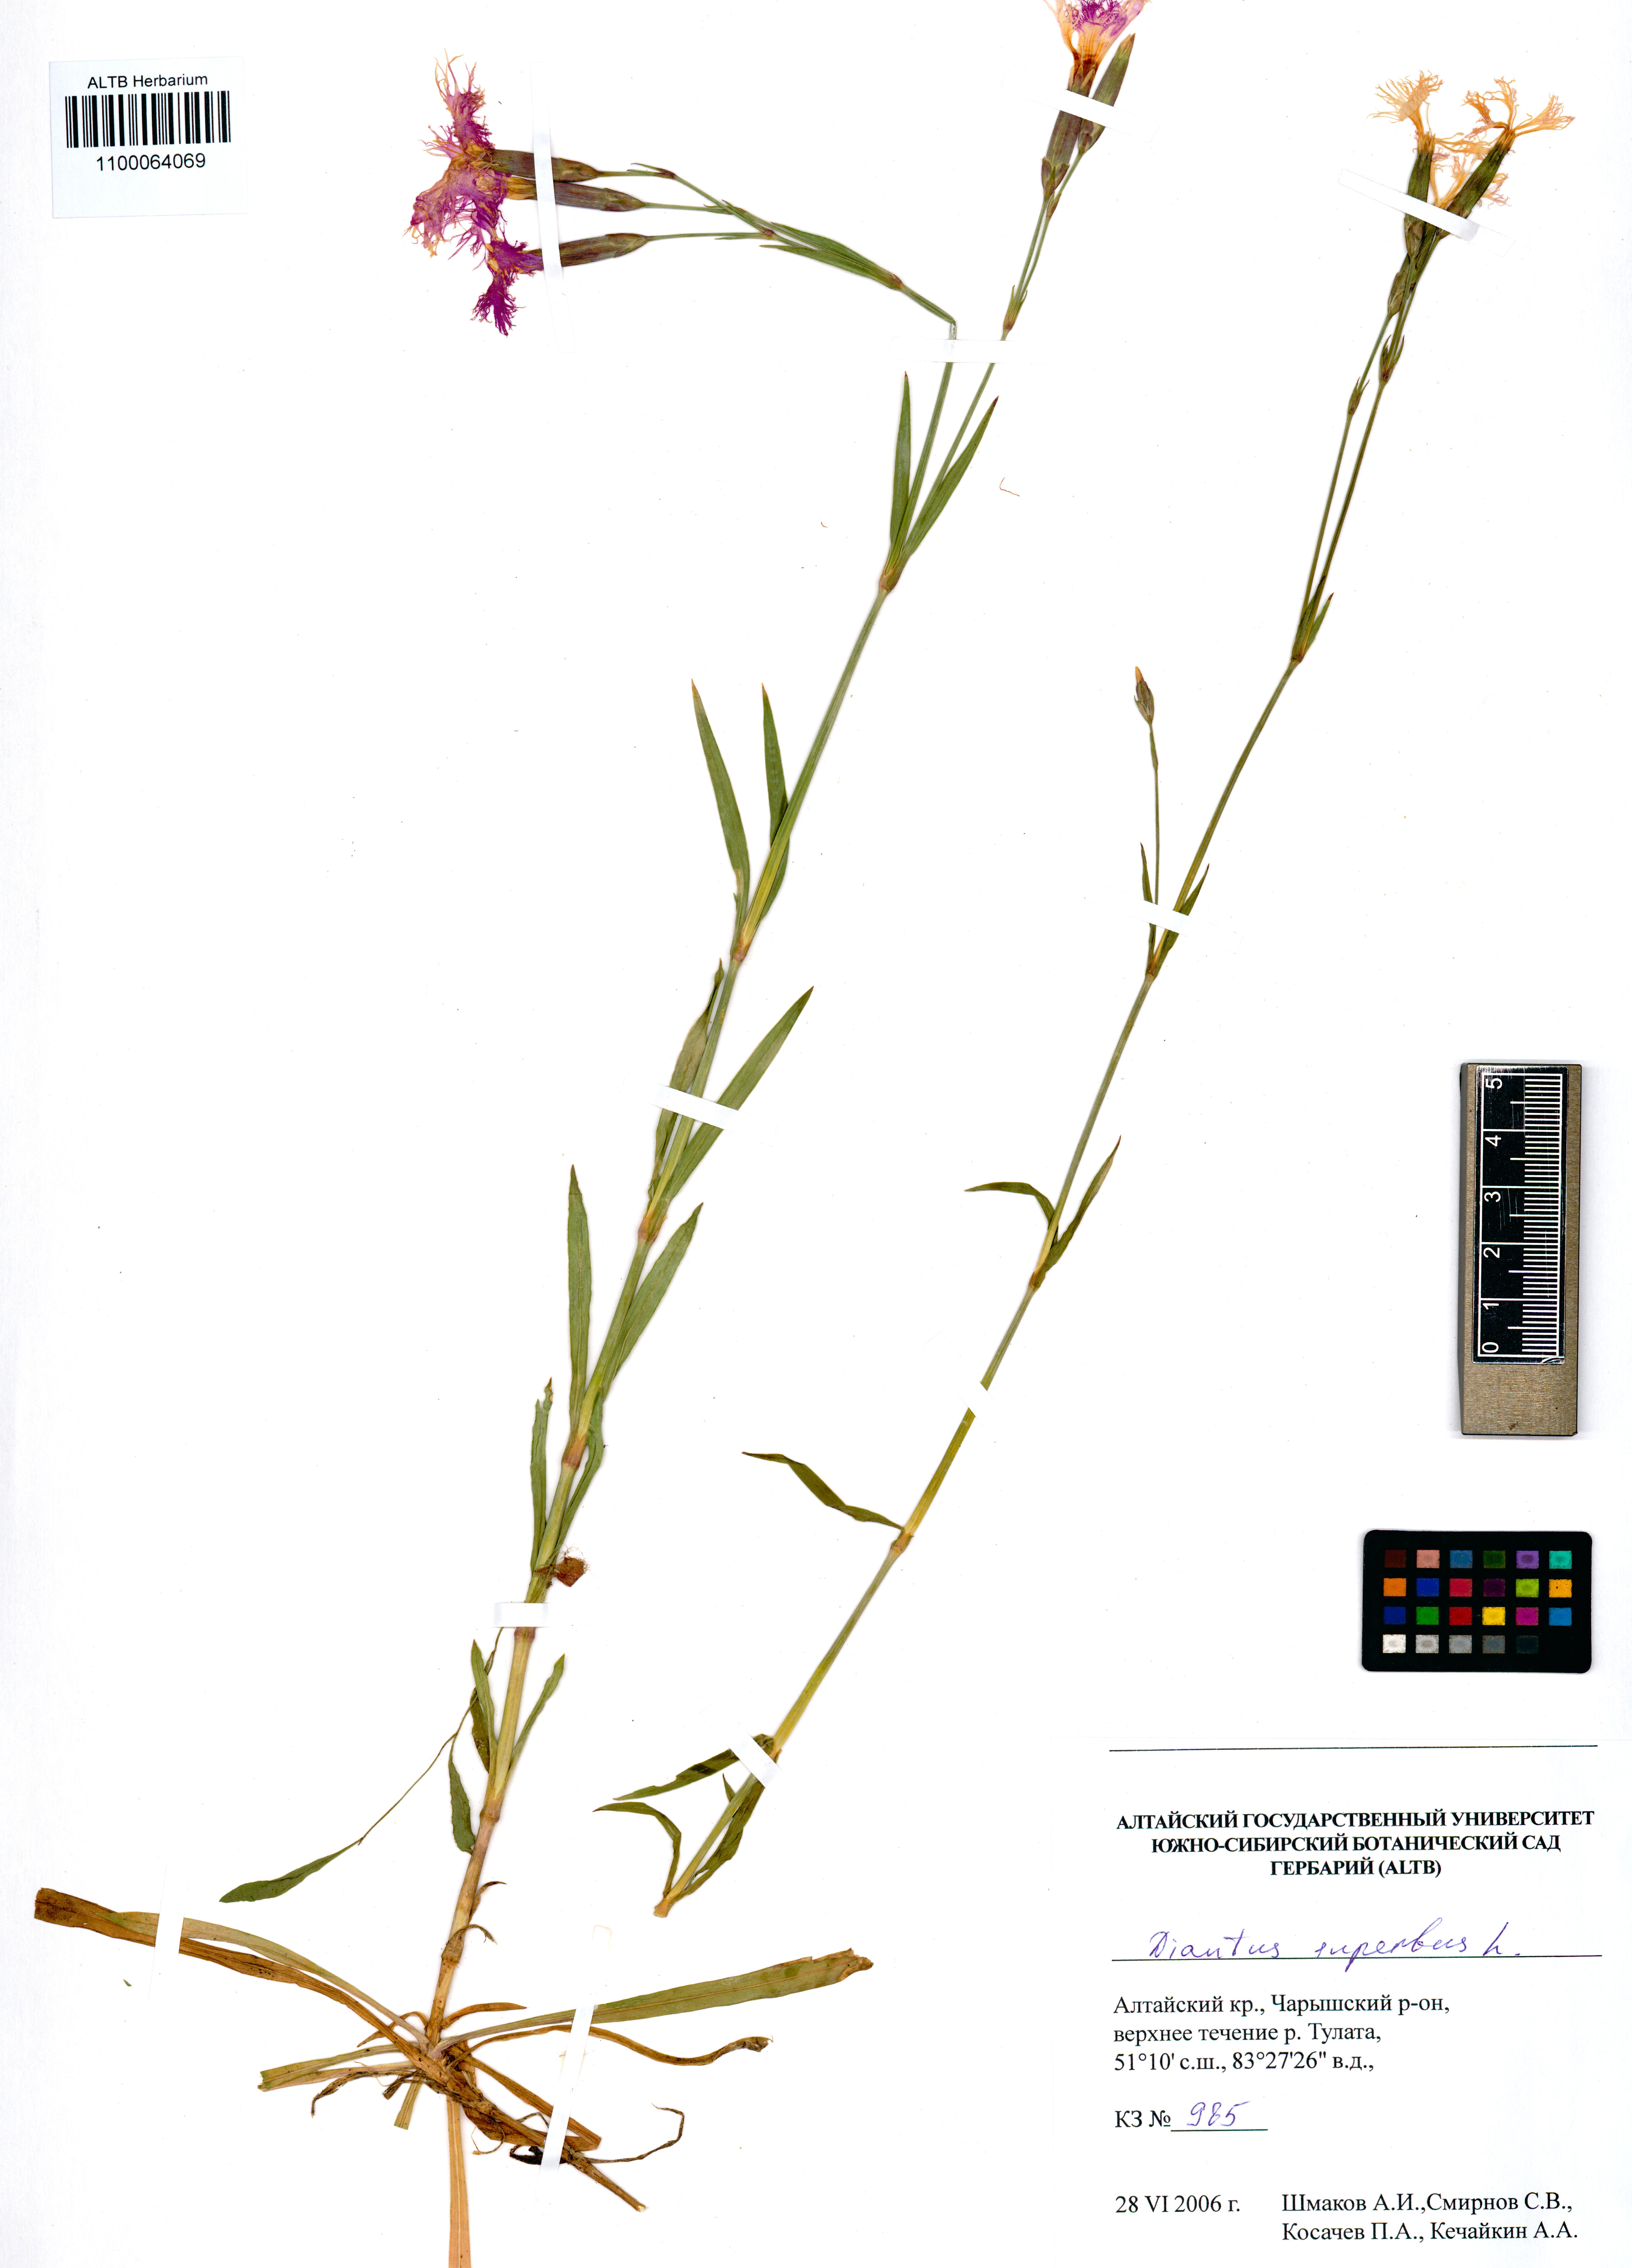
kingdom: Plantae
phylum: Tracheophyta
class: Magnoliopsida
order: Caryophyllales
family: Caryophyllaceae
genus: Dianthus
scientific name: Dianthus superbus
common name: Fringed pink
